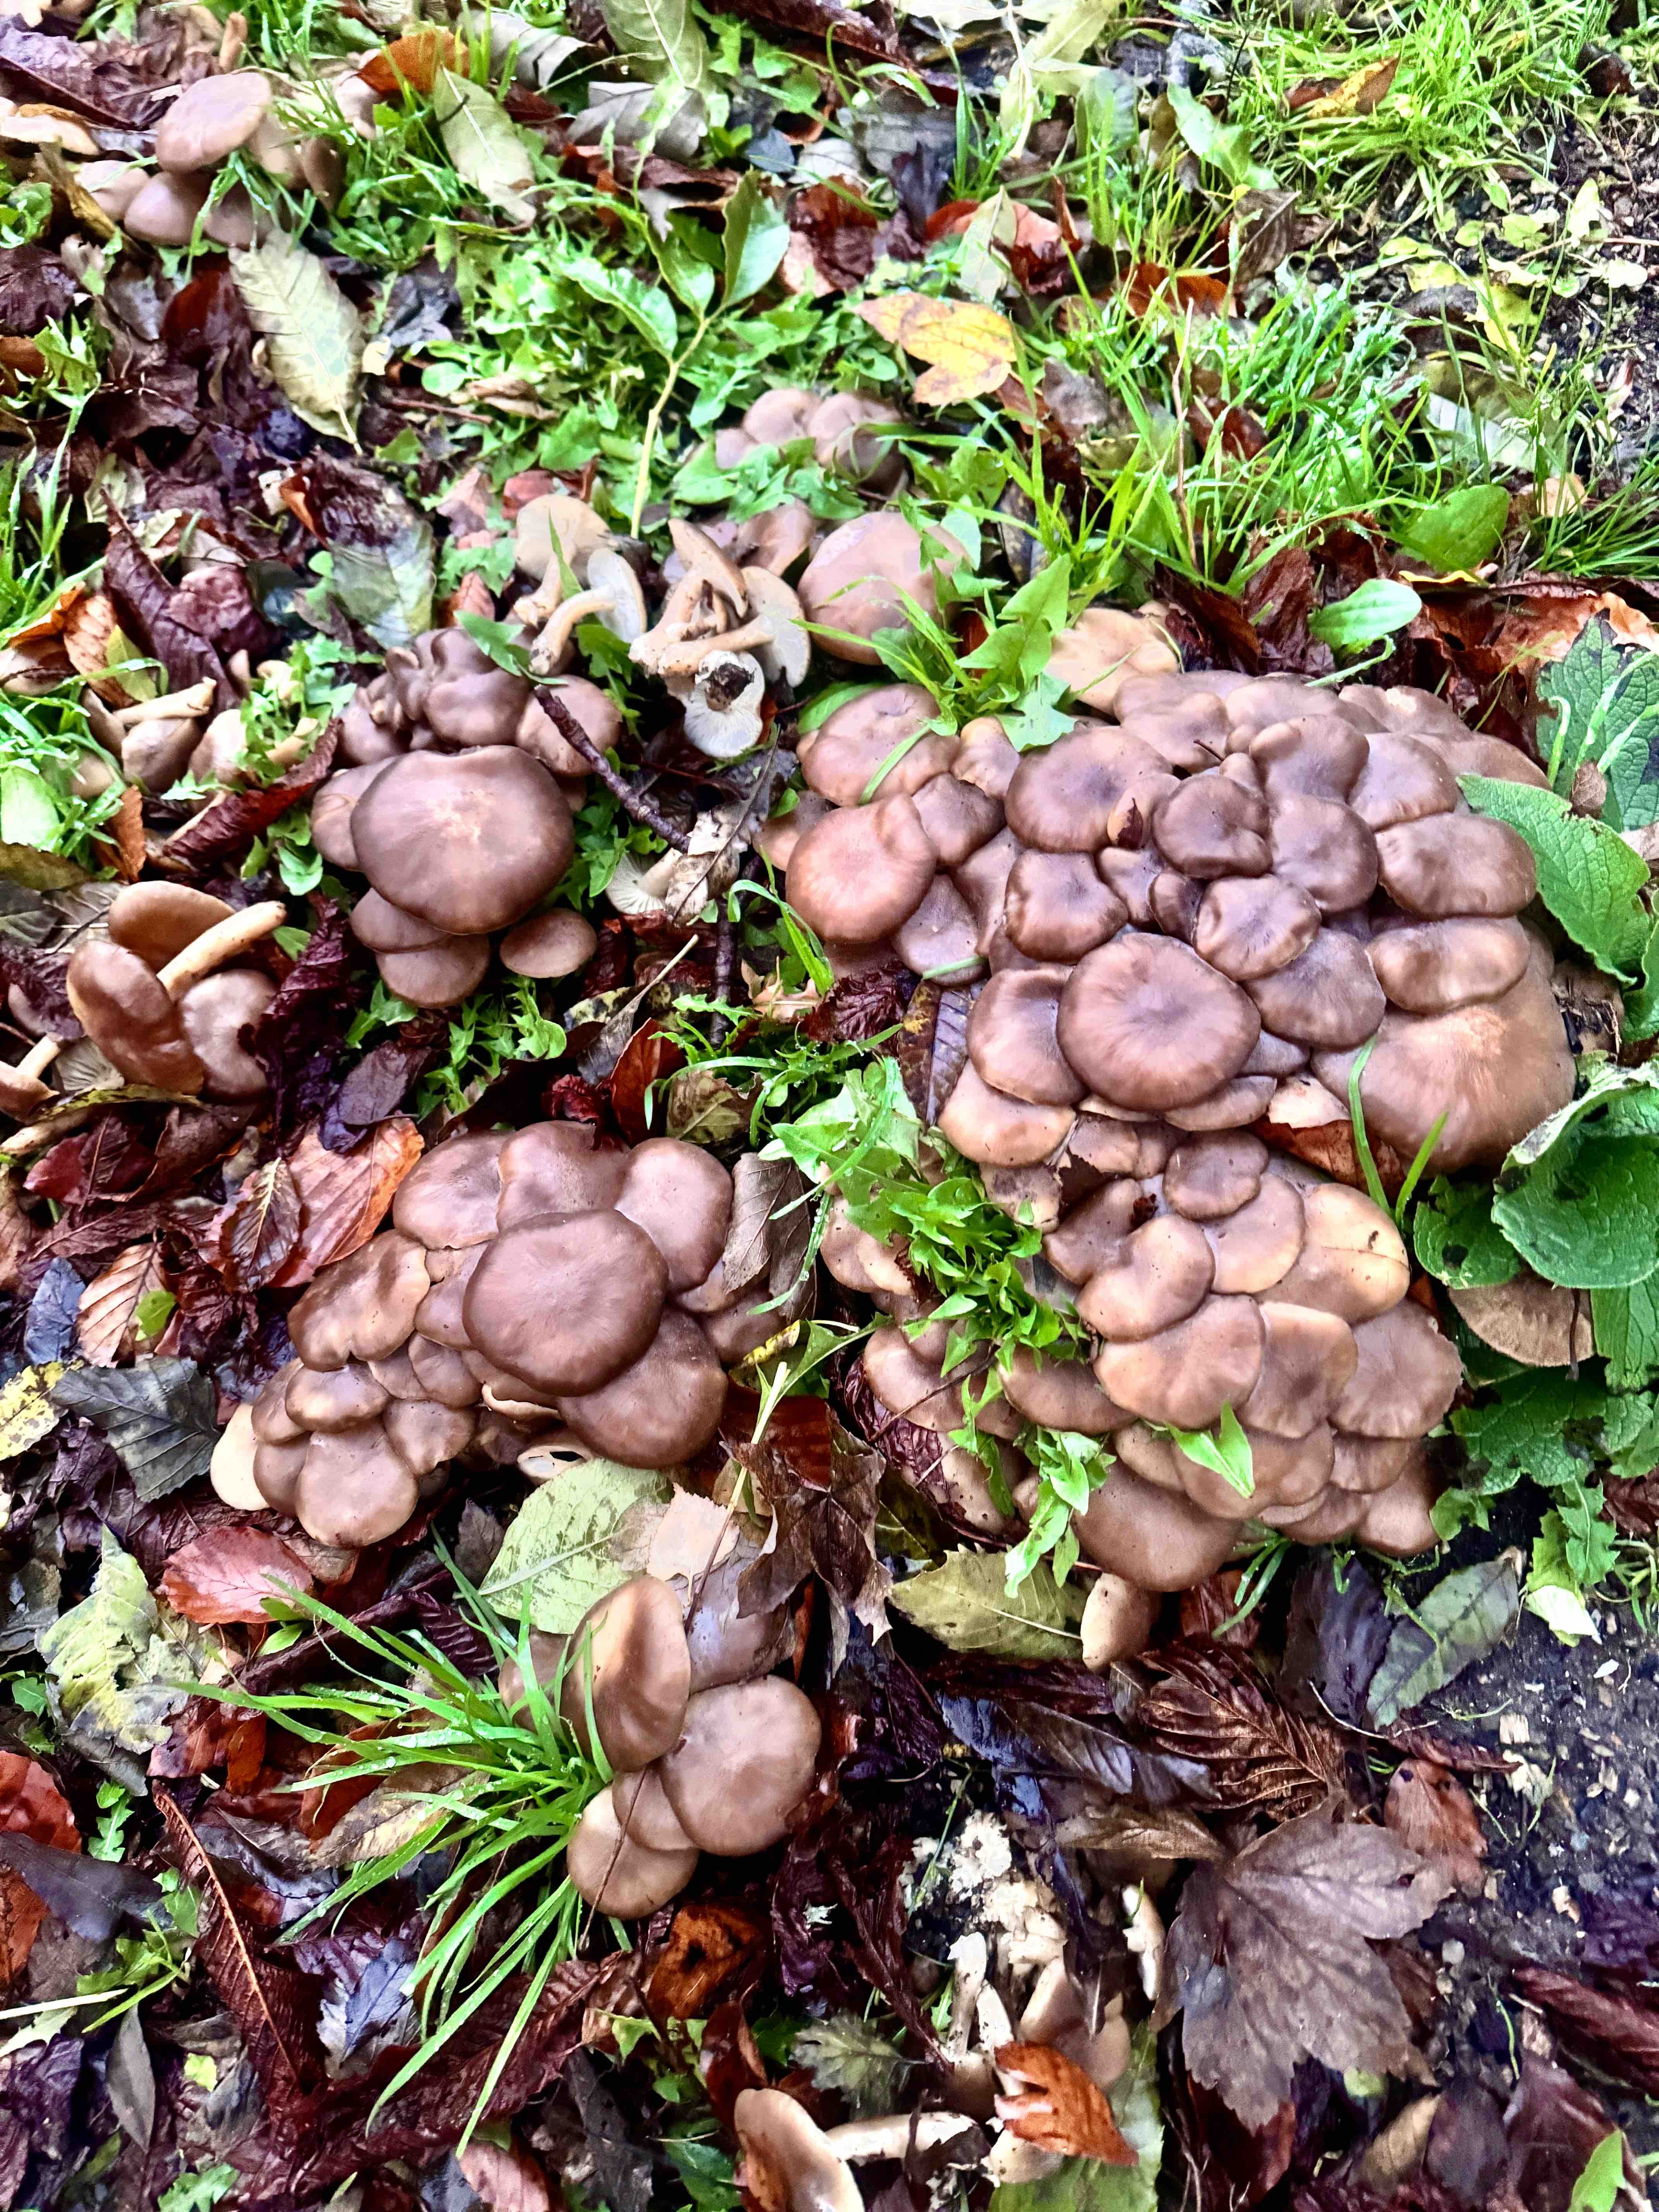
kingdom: Fungi
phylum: Basidiomycota
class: Agaricomycetes
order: Agaricales
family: Lyophyllaceae
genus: Lyophyllum
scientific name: Lyophyllum decastes
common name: røggrå gråblad
